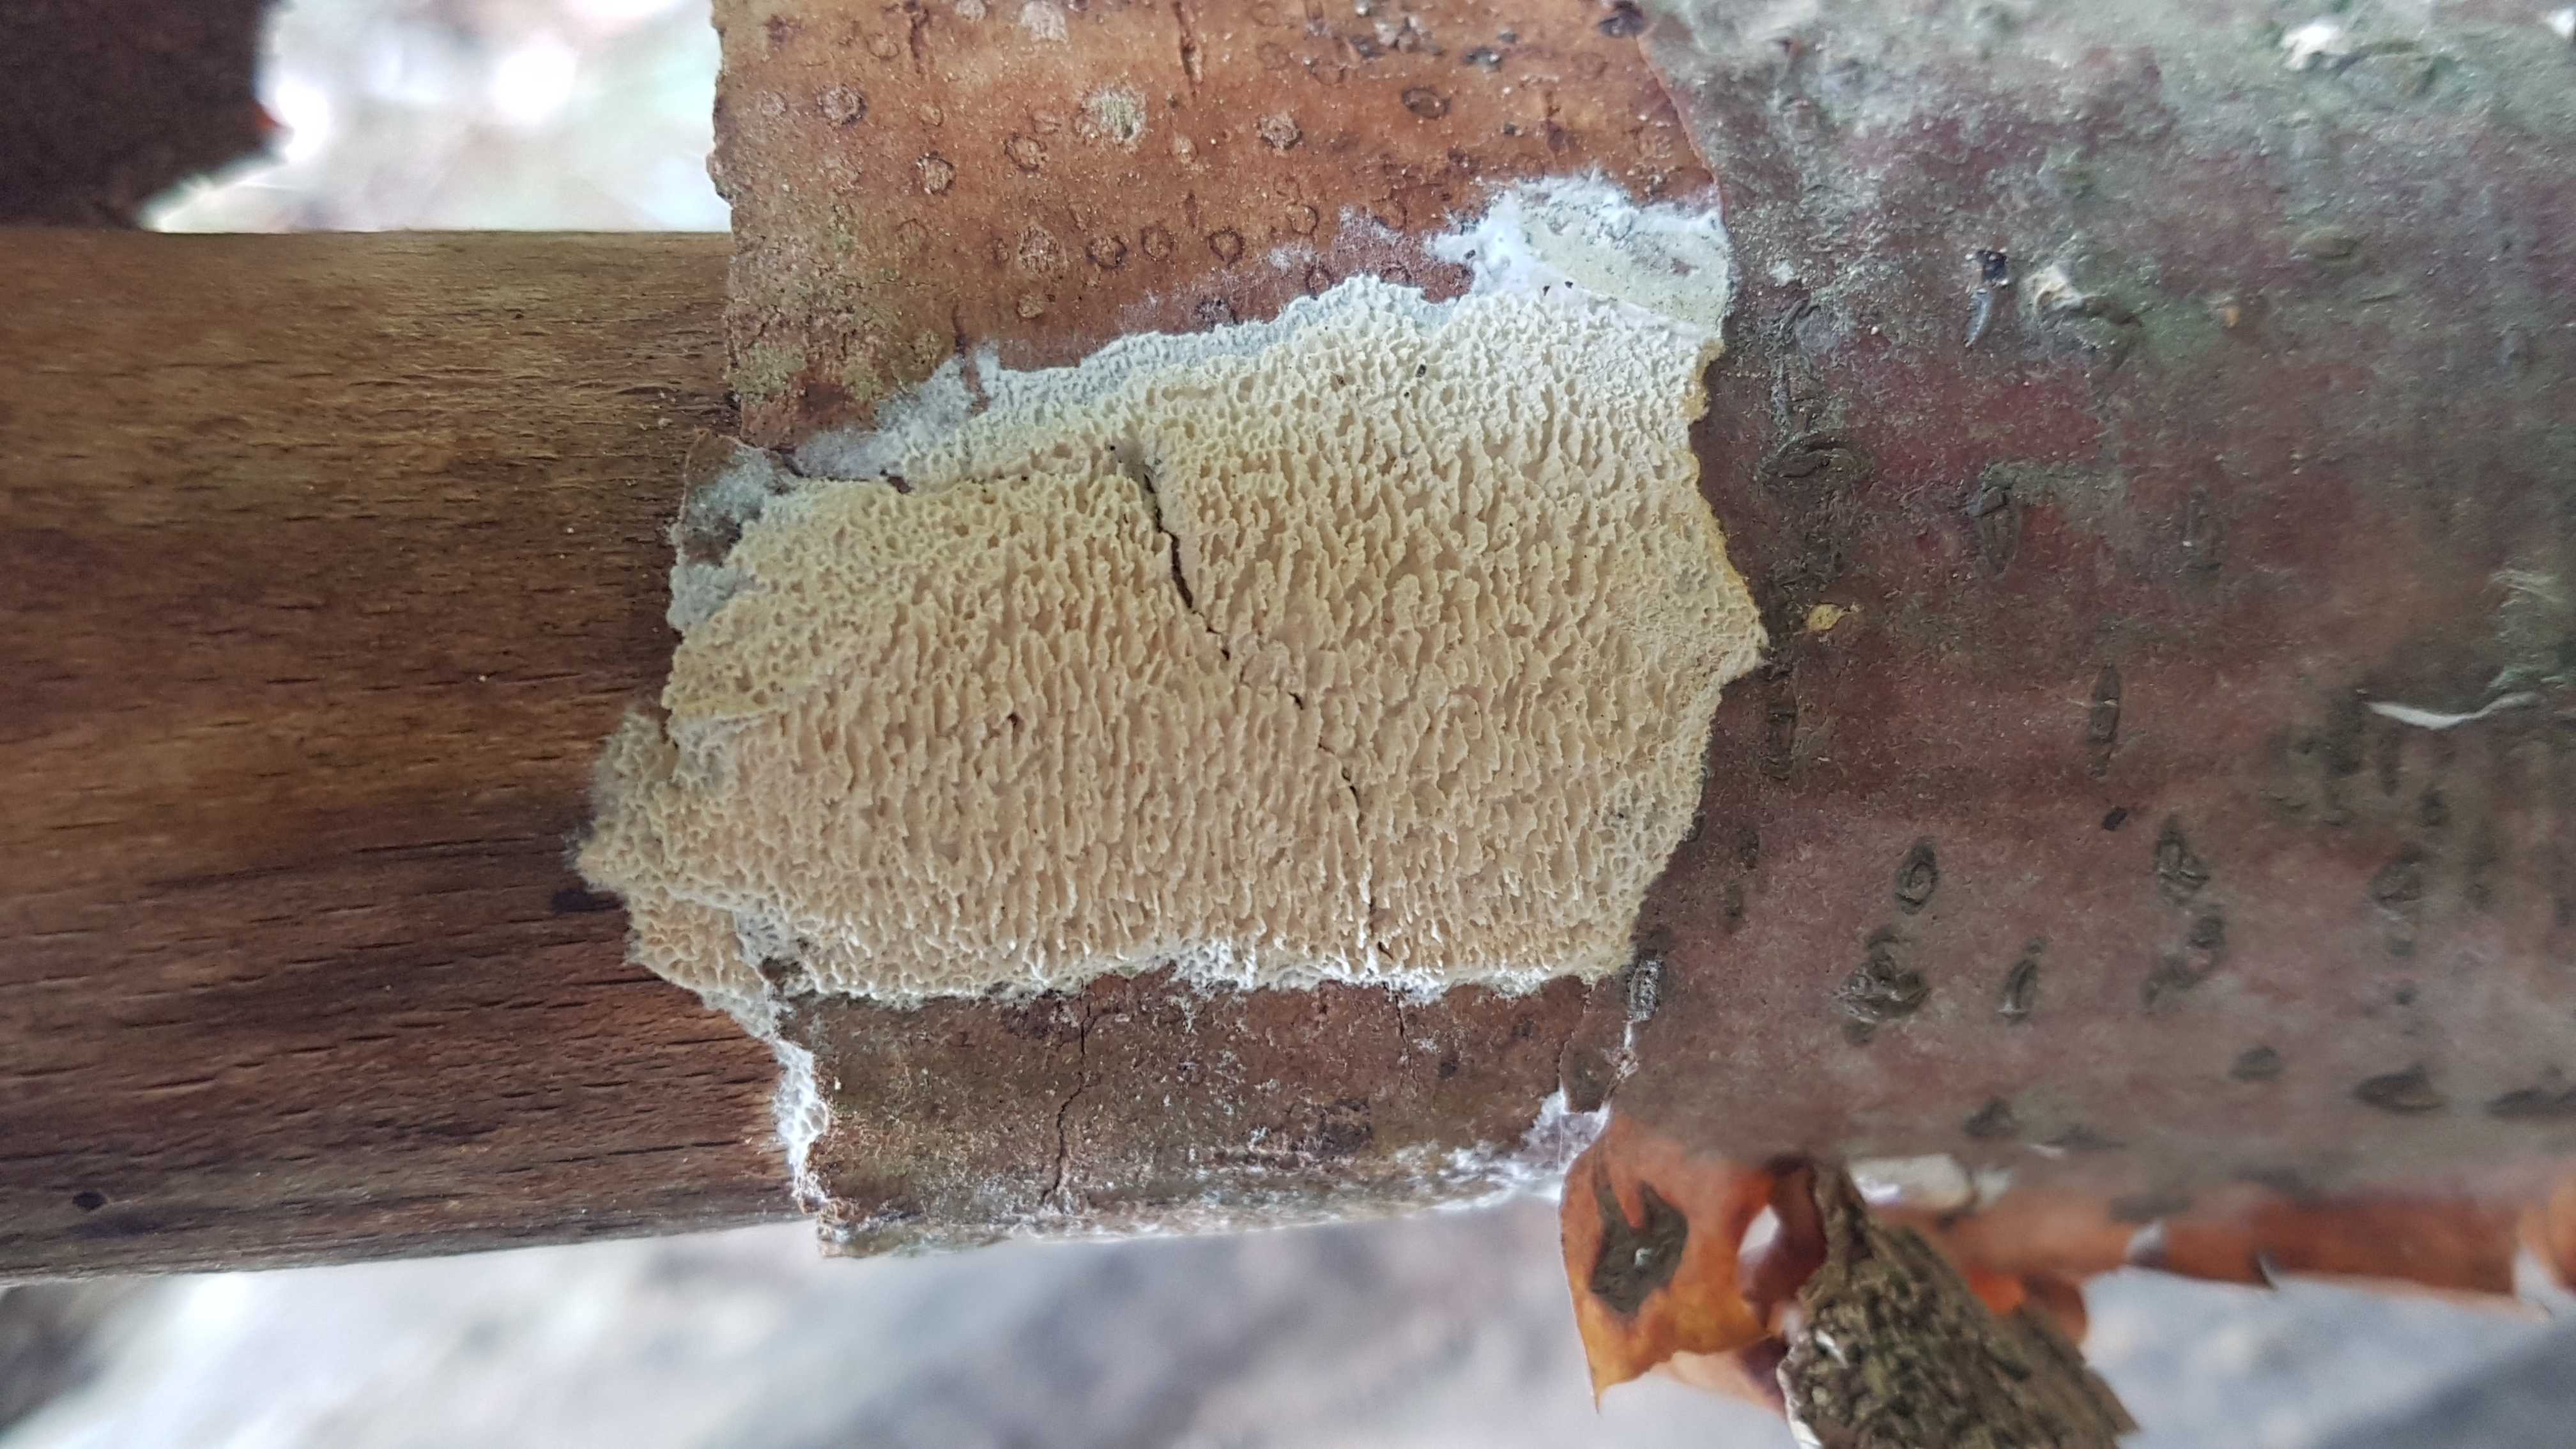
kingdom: Fungi
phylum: Basidiomycota
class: Agaricomycetes
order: Hymenochaetales
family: Schizoporaceae
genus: Xylodon
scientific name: Xylodon
